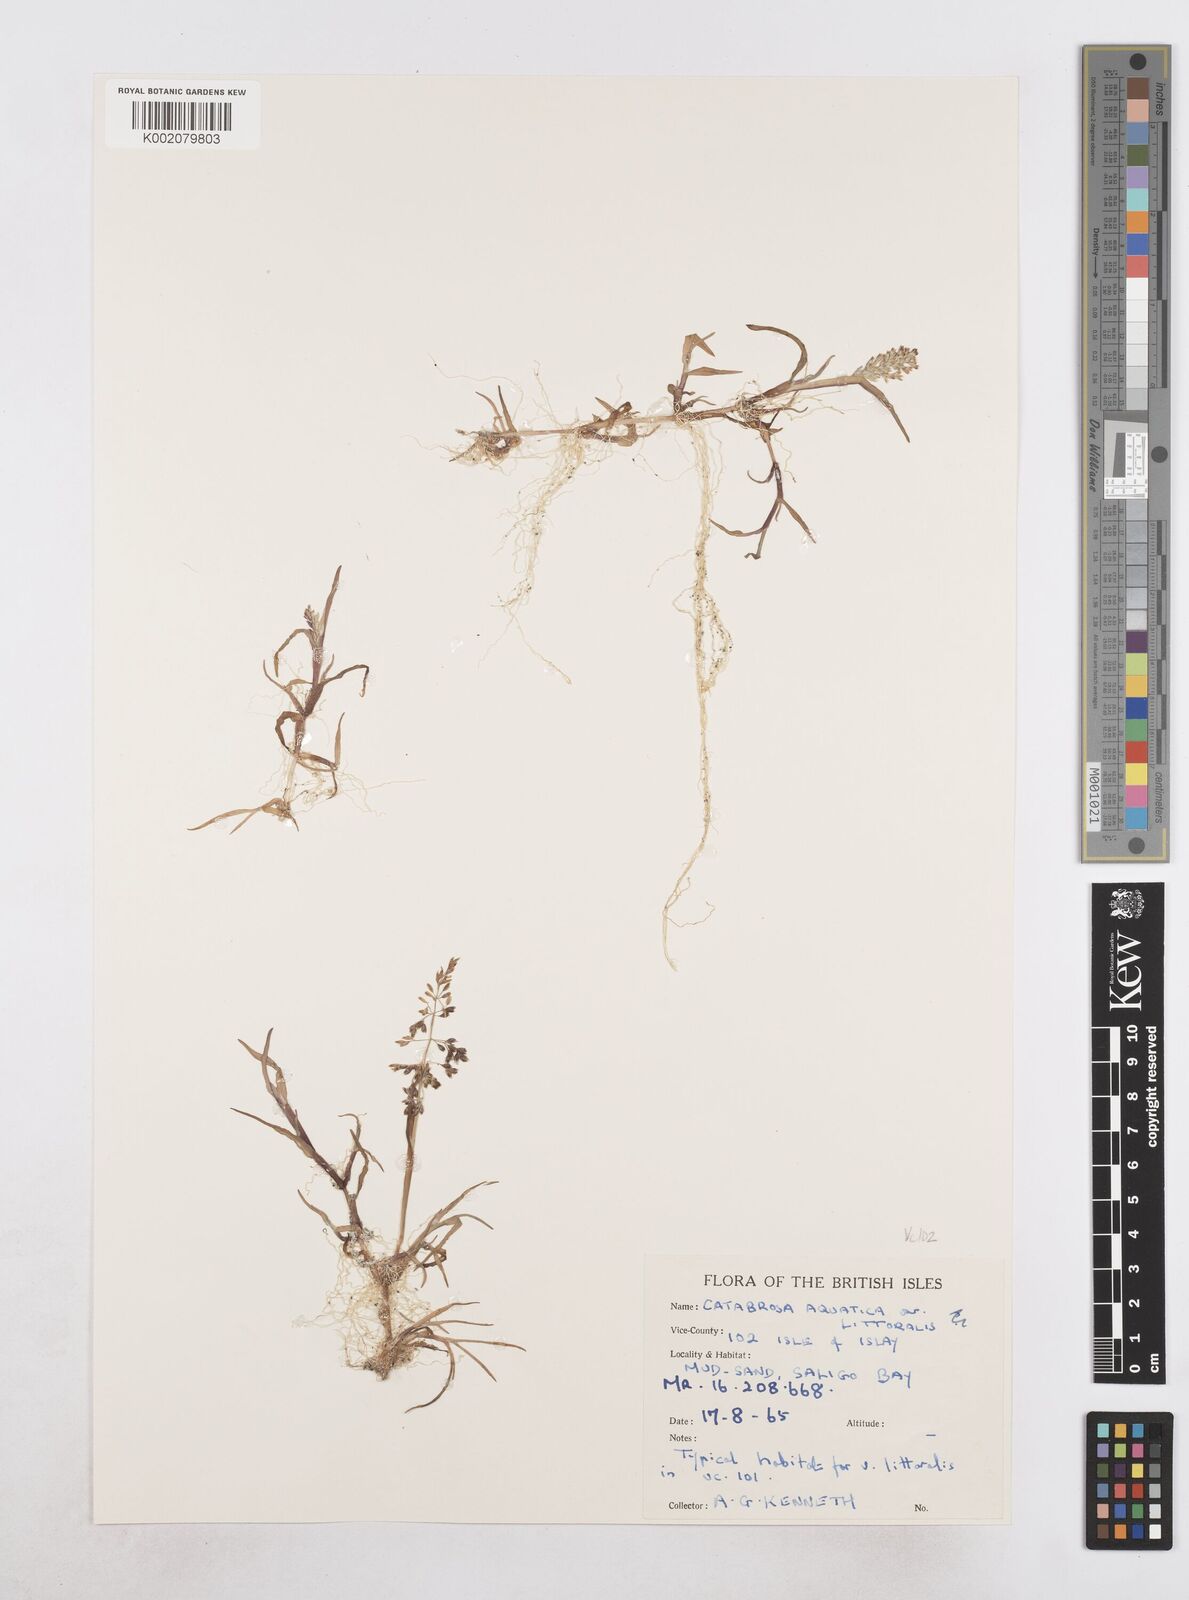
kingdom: Plantae
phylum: Tracheophyta
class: Liliopsida
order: Poales
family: Poaceae
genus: Catabrosa
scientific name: Catabrosa aquatica
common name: Whorl-grass
